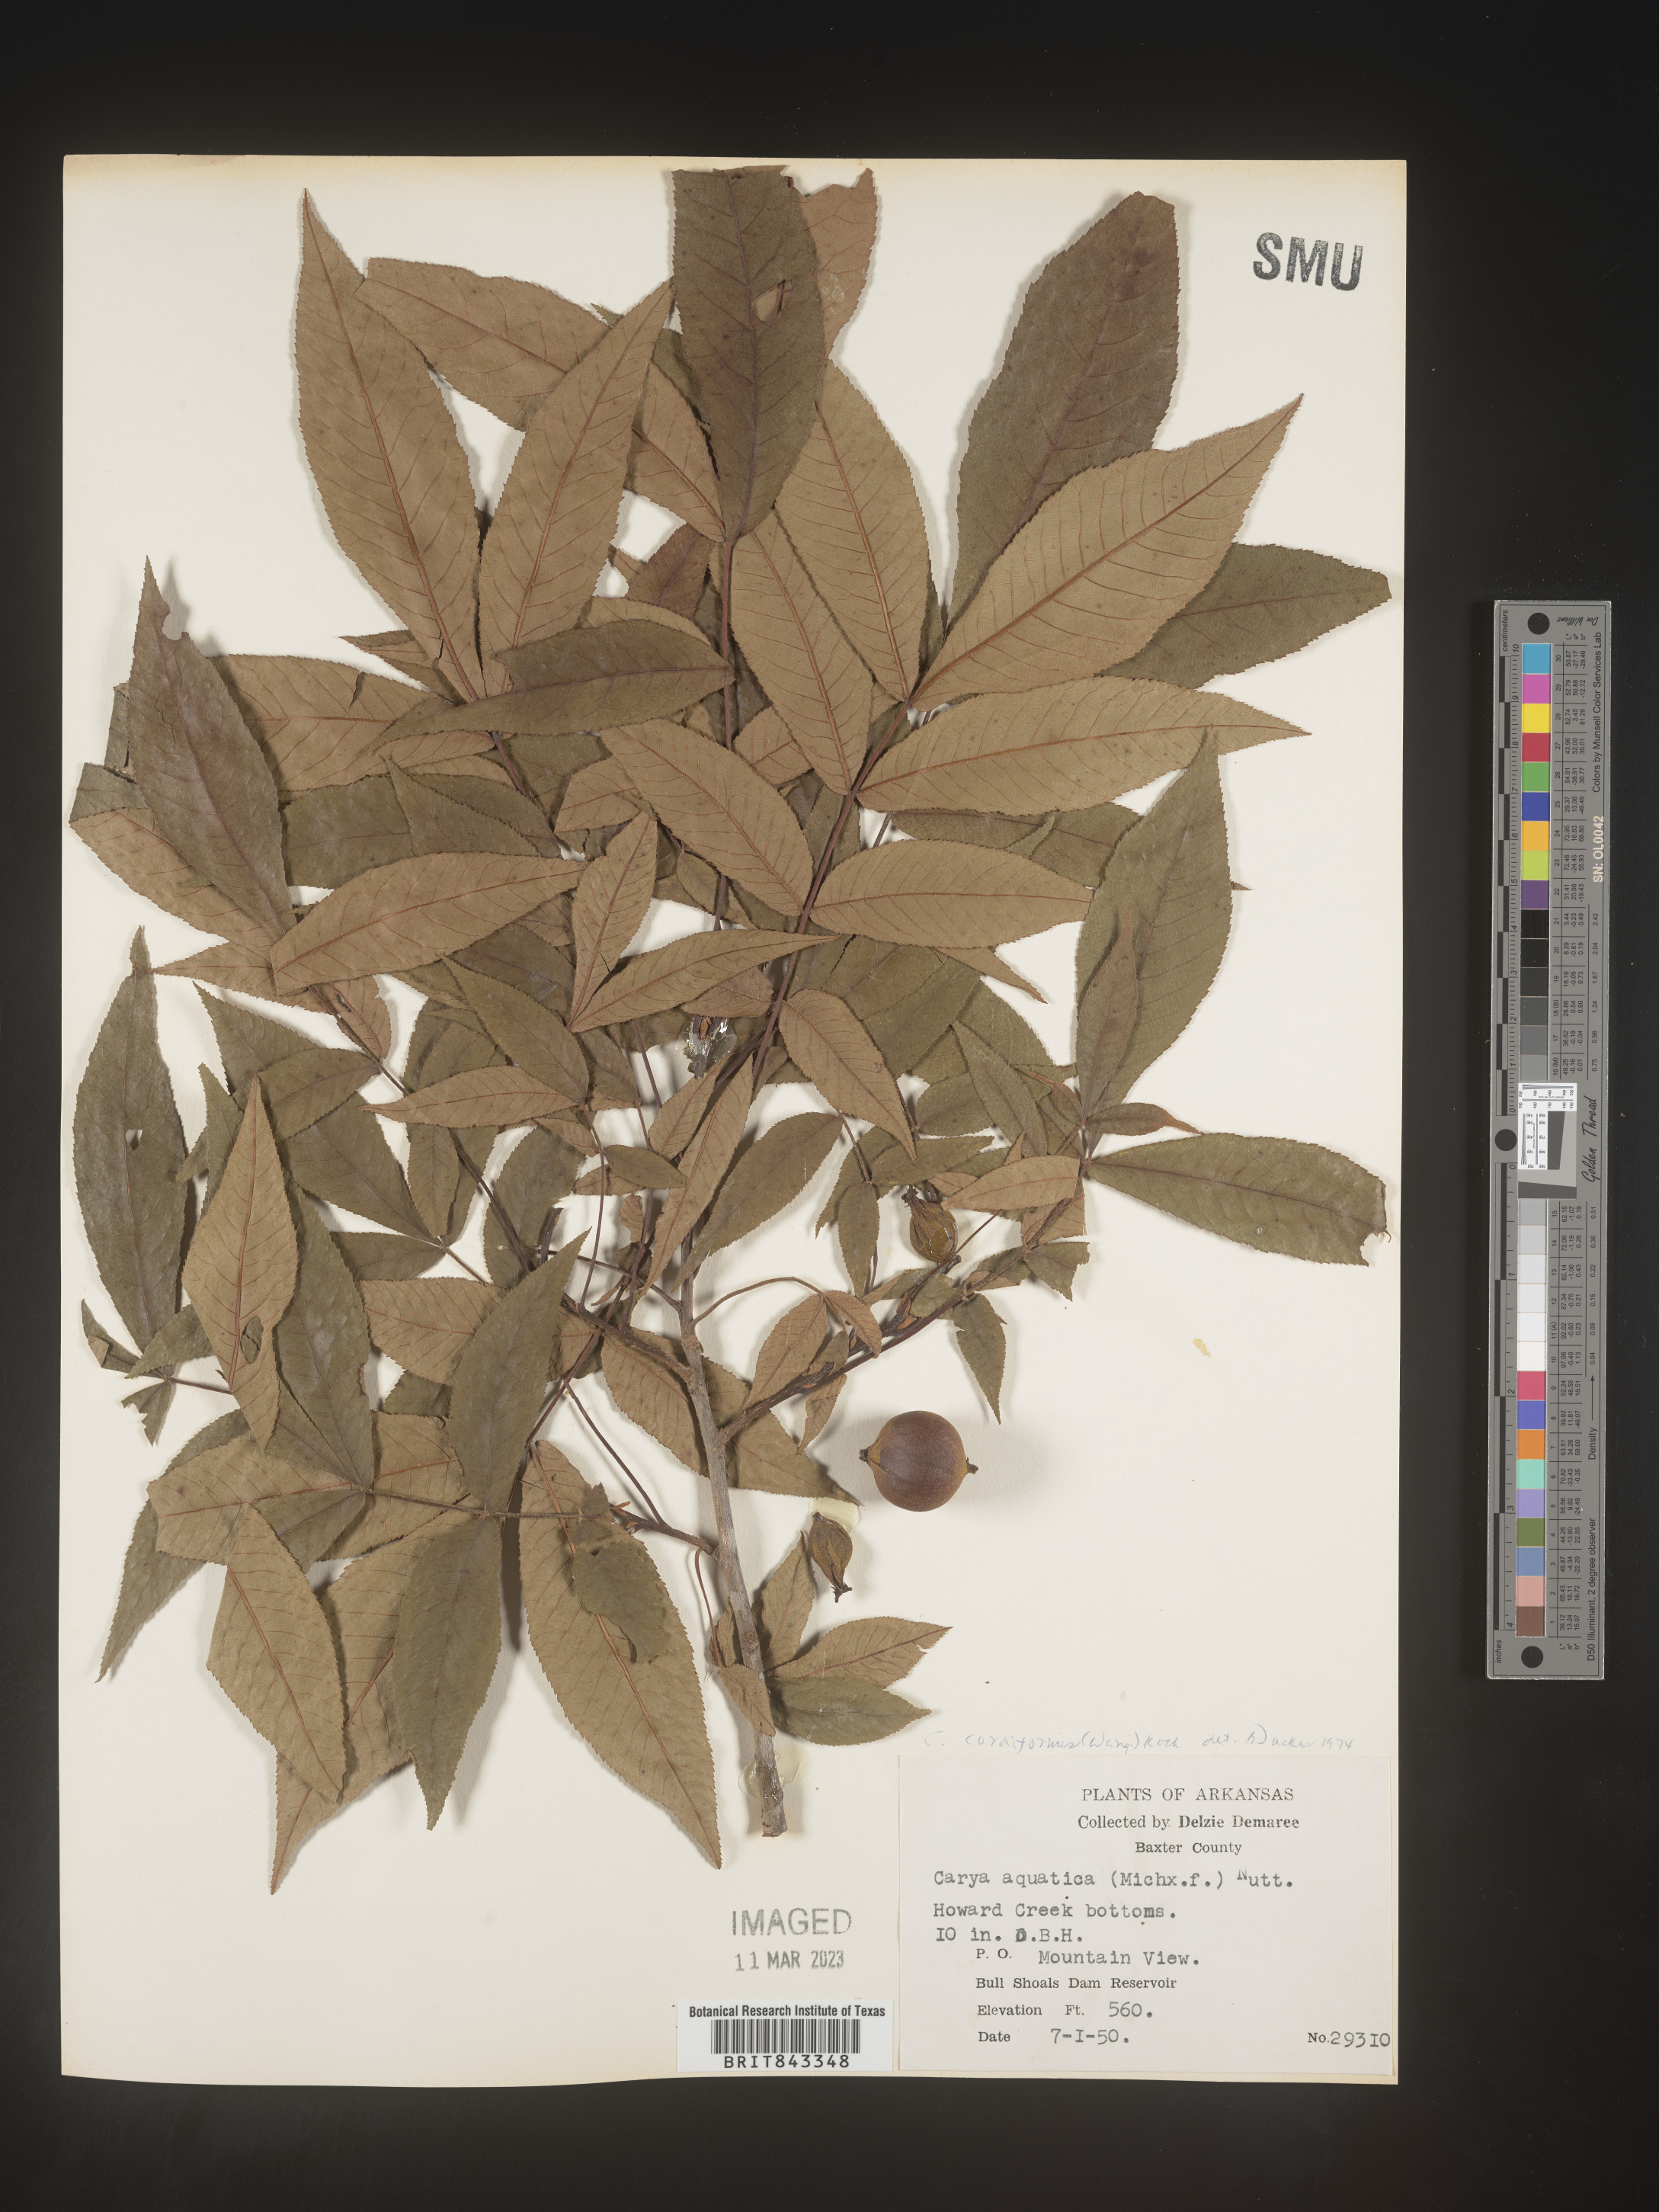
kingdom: Plantae
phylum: Tracheophyta
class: Magnoliopsida
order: Fagales
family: Juglandaceae
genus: Carya
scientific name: Carya cordiformis
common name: Bitternut hickory
